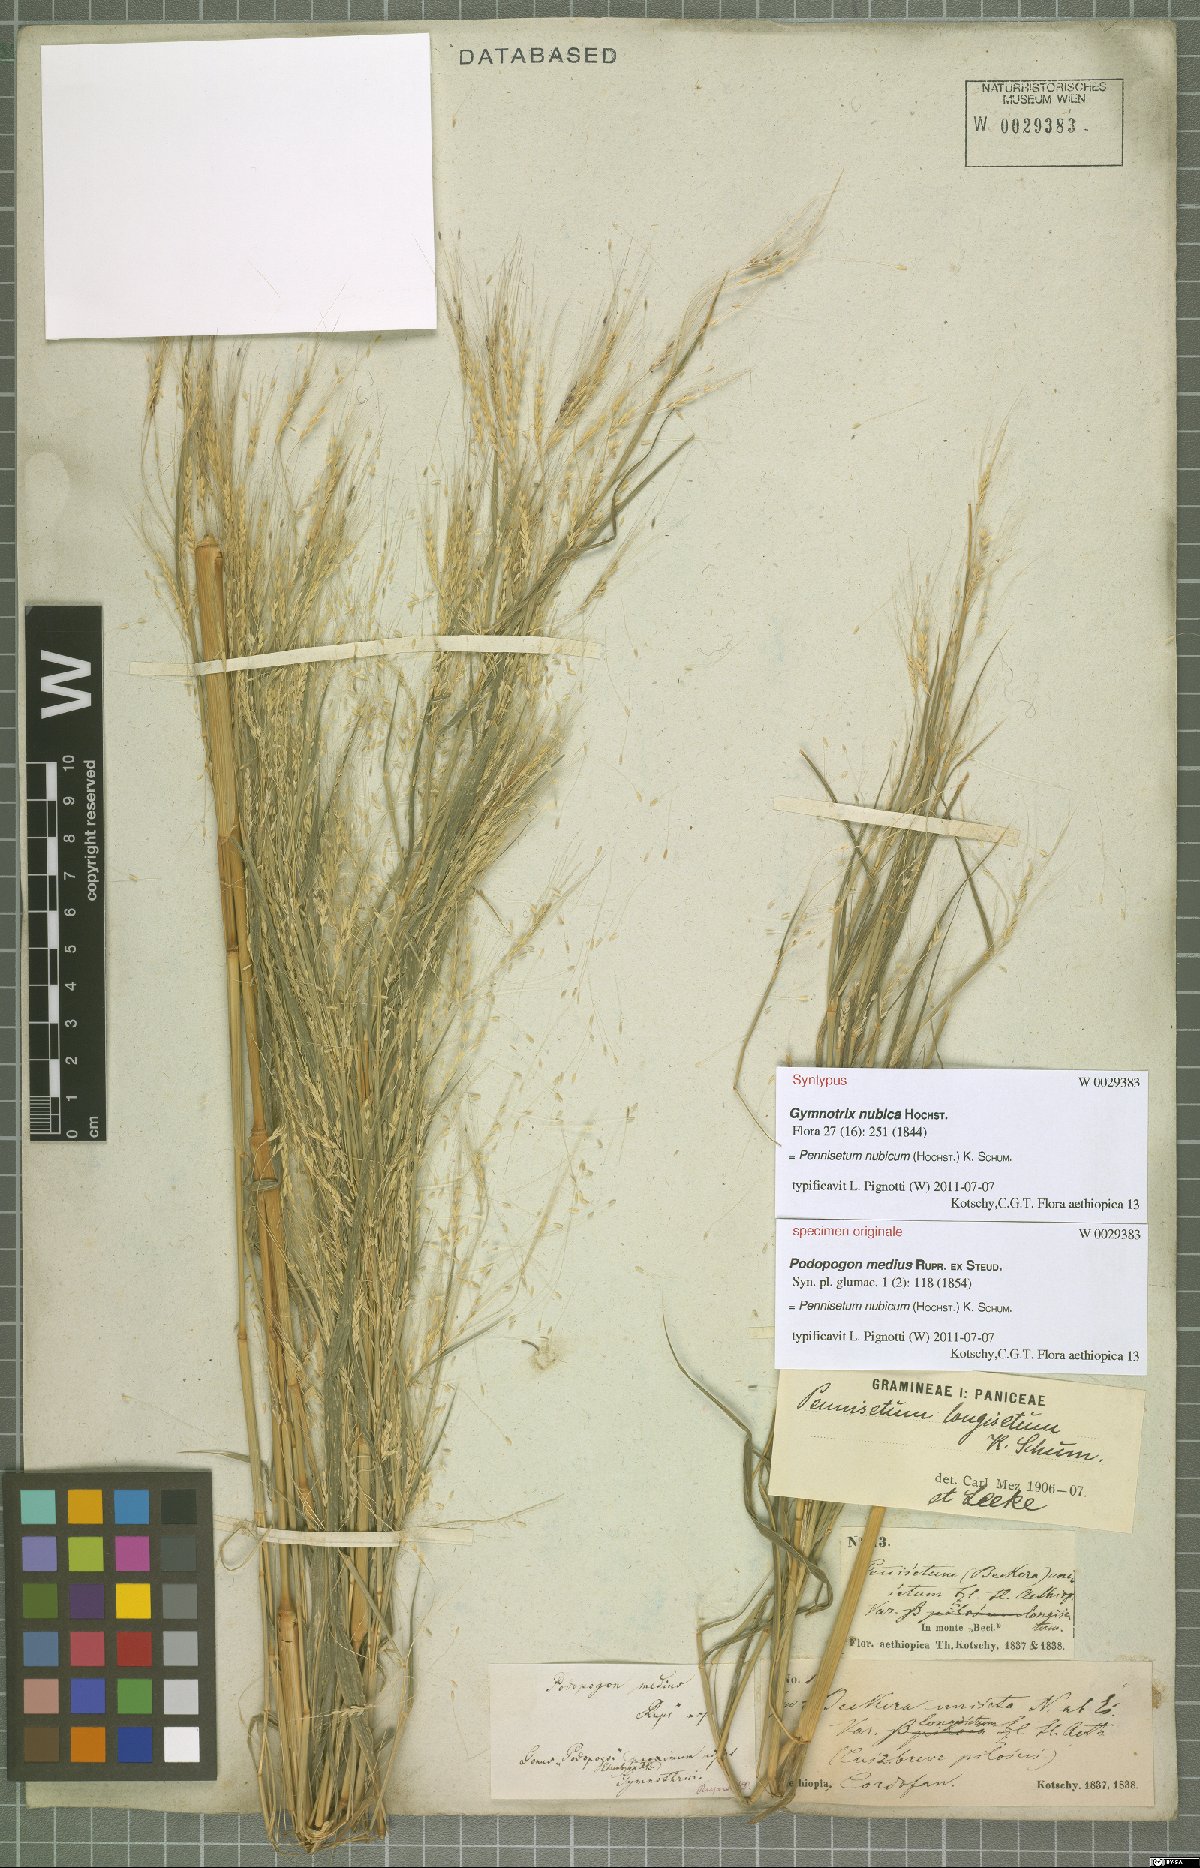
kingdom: Plantae
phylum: Tracheophyta
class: Liliopsida
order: Poales
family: Poaceae
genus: Cenchrus
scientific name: Cenchrus nubicus
